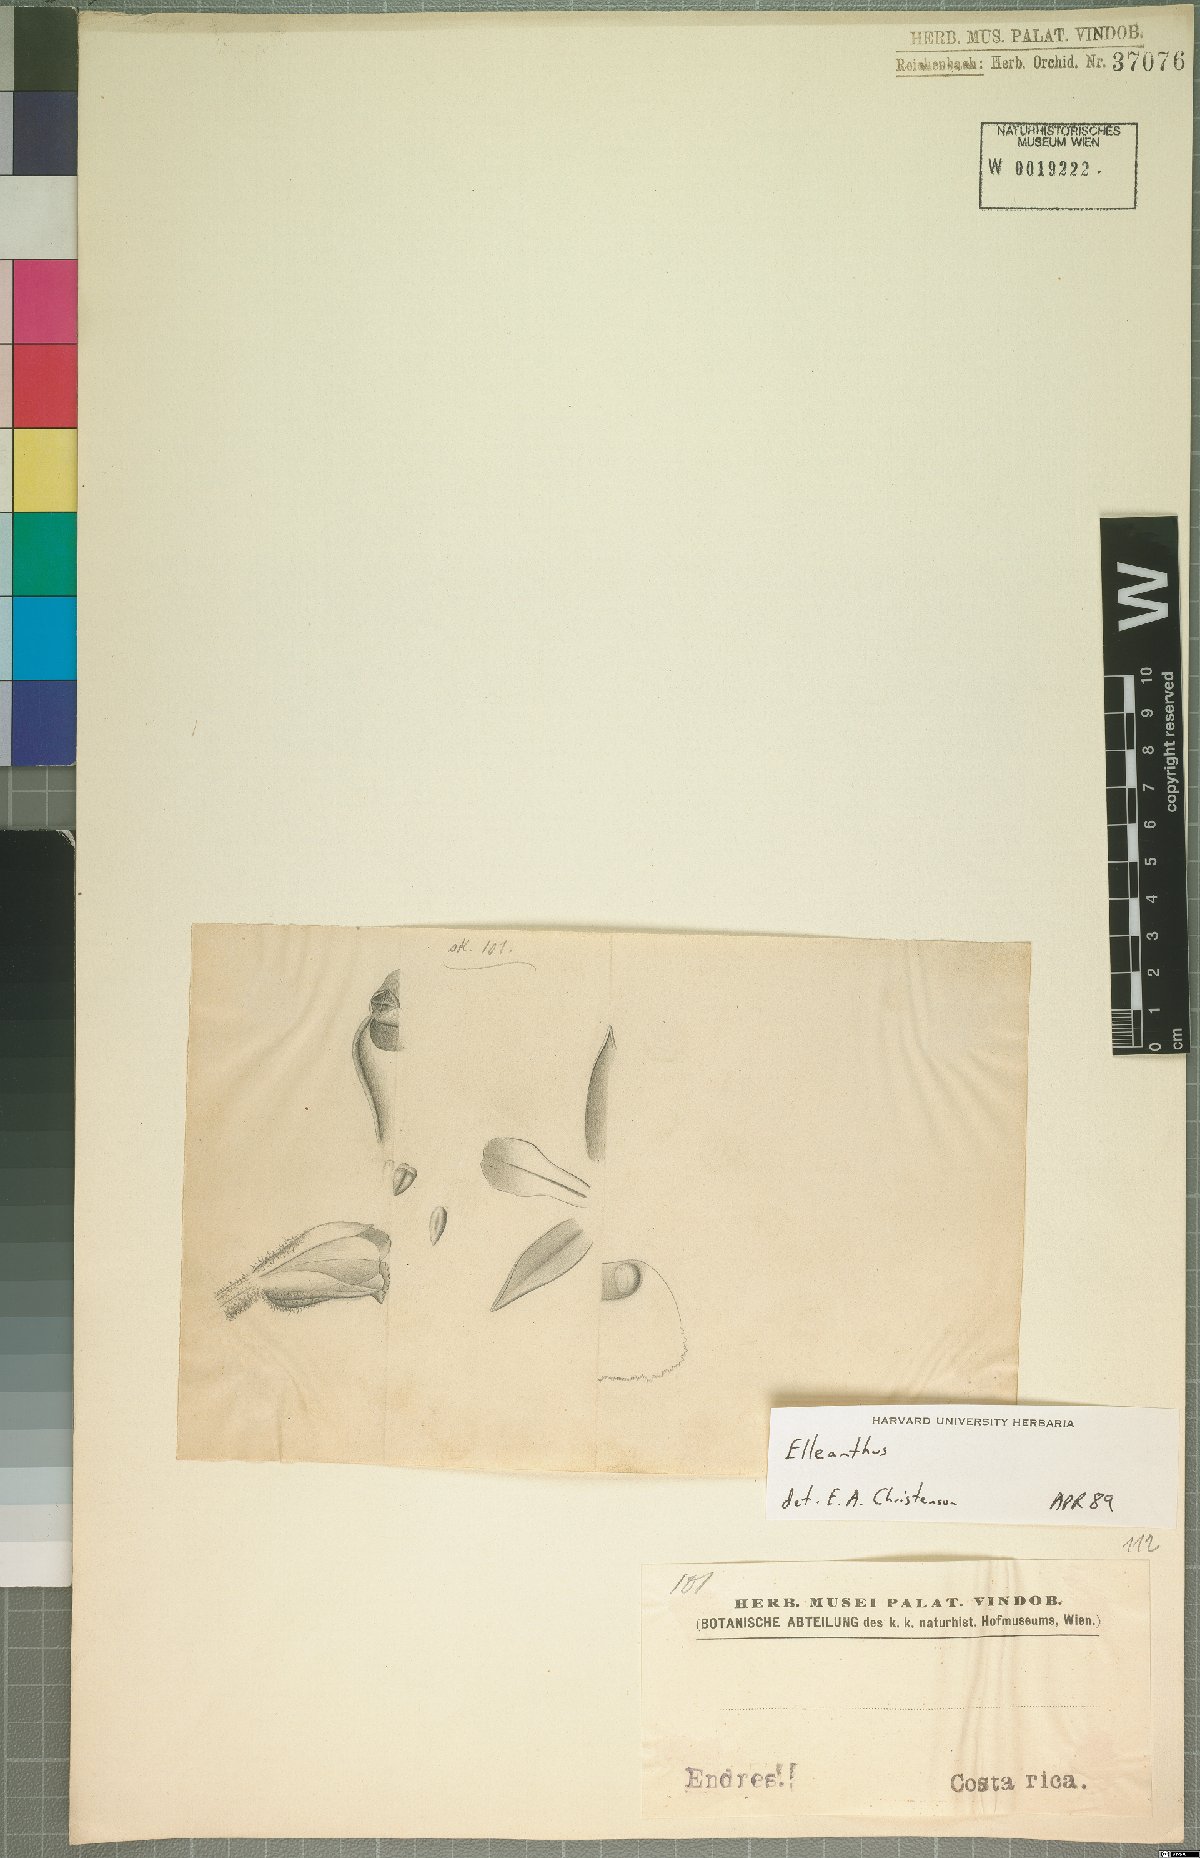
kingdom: Plantae
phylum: Tracheophyta
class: Liliopsida
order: Asparagales
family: Orchidaceae
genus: Elleanthus
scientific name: Elleanthus
